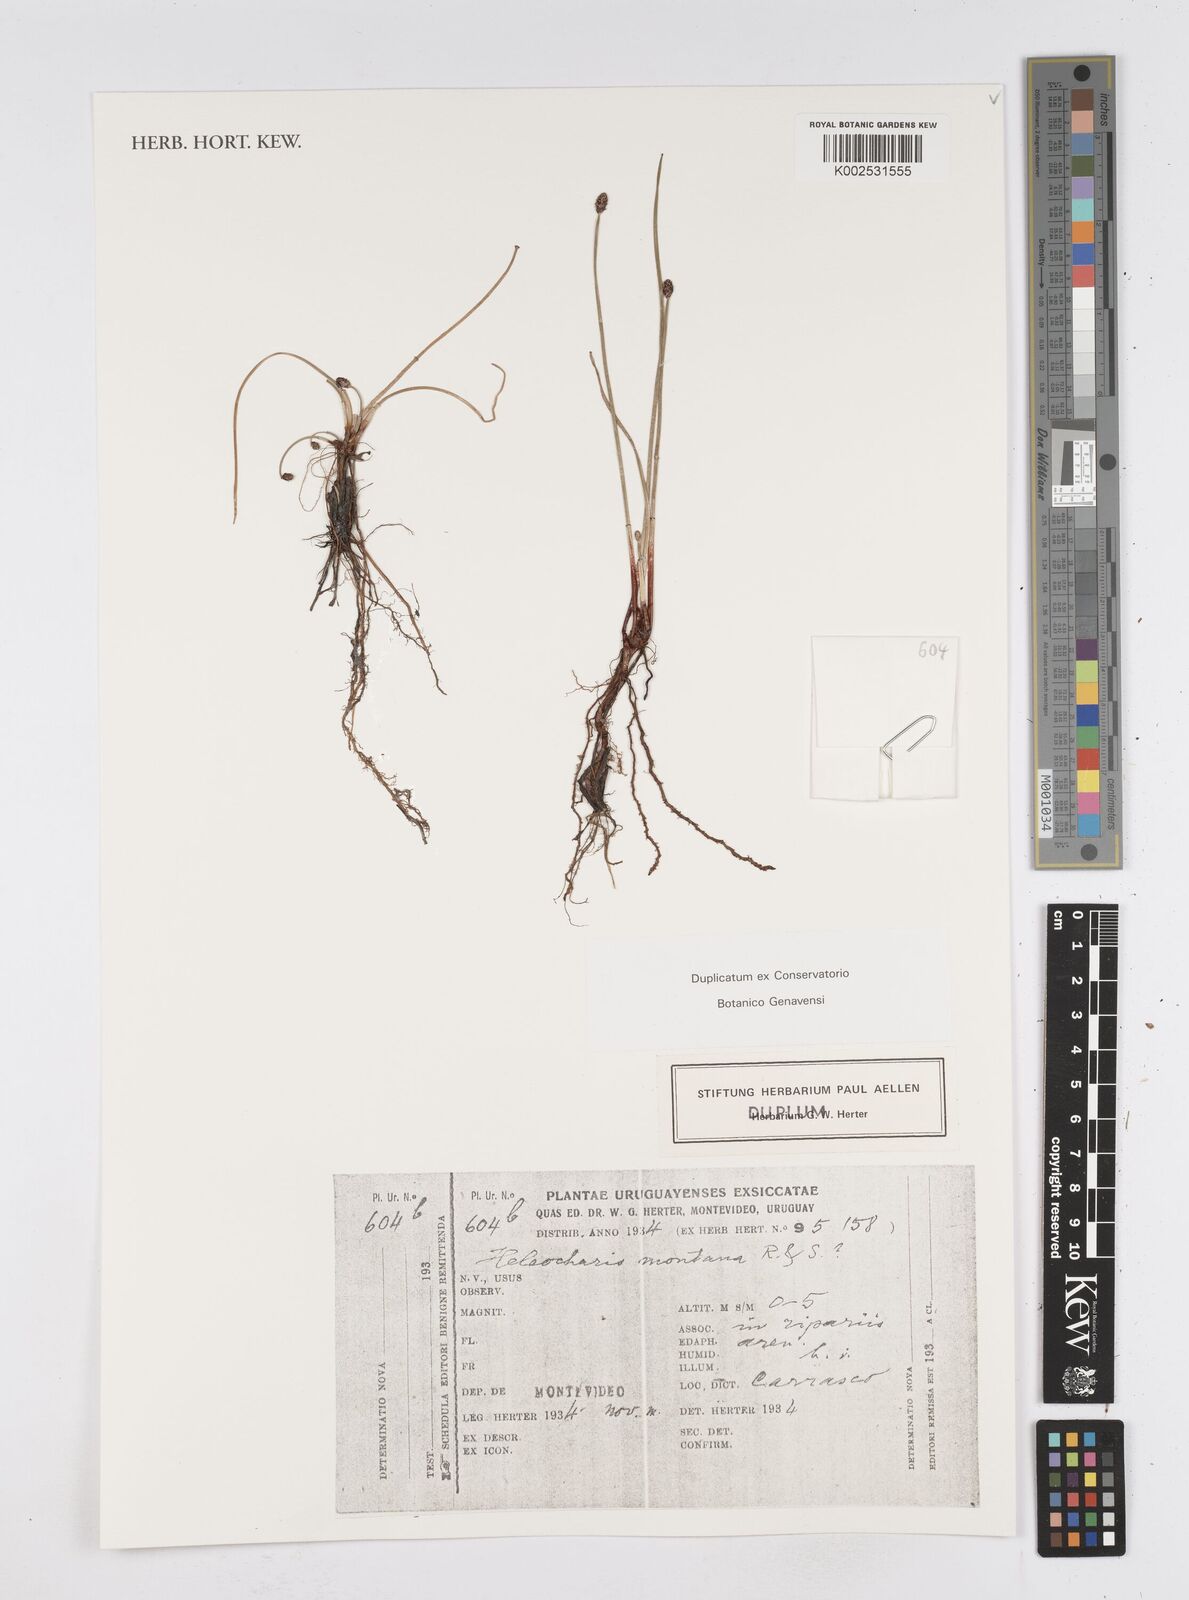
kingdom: Plantae
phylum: Tracheophyta
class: Liliopsida
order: Poales
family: Cyperaceae
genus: Eleocharis
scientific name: Eleocharis montana
